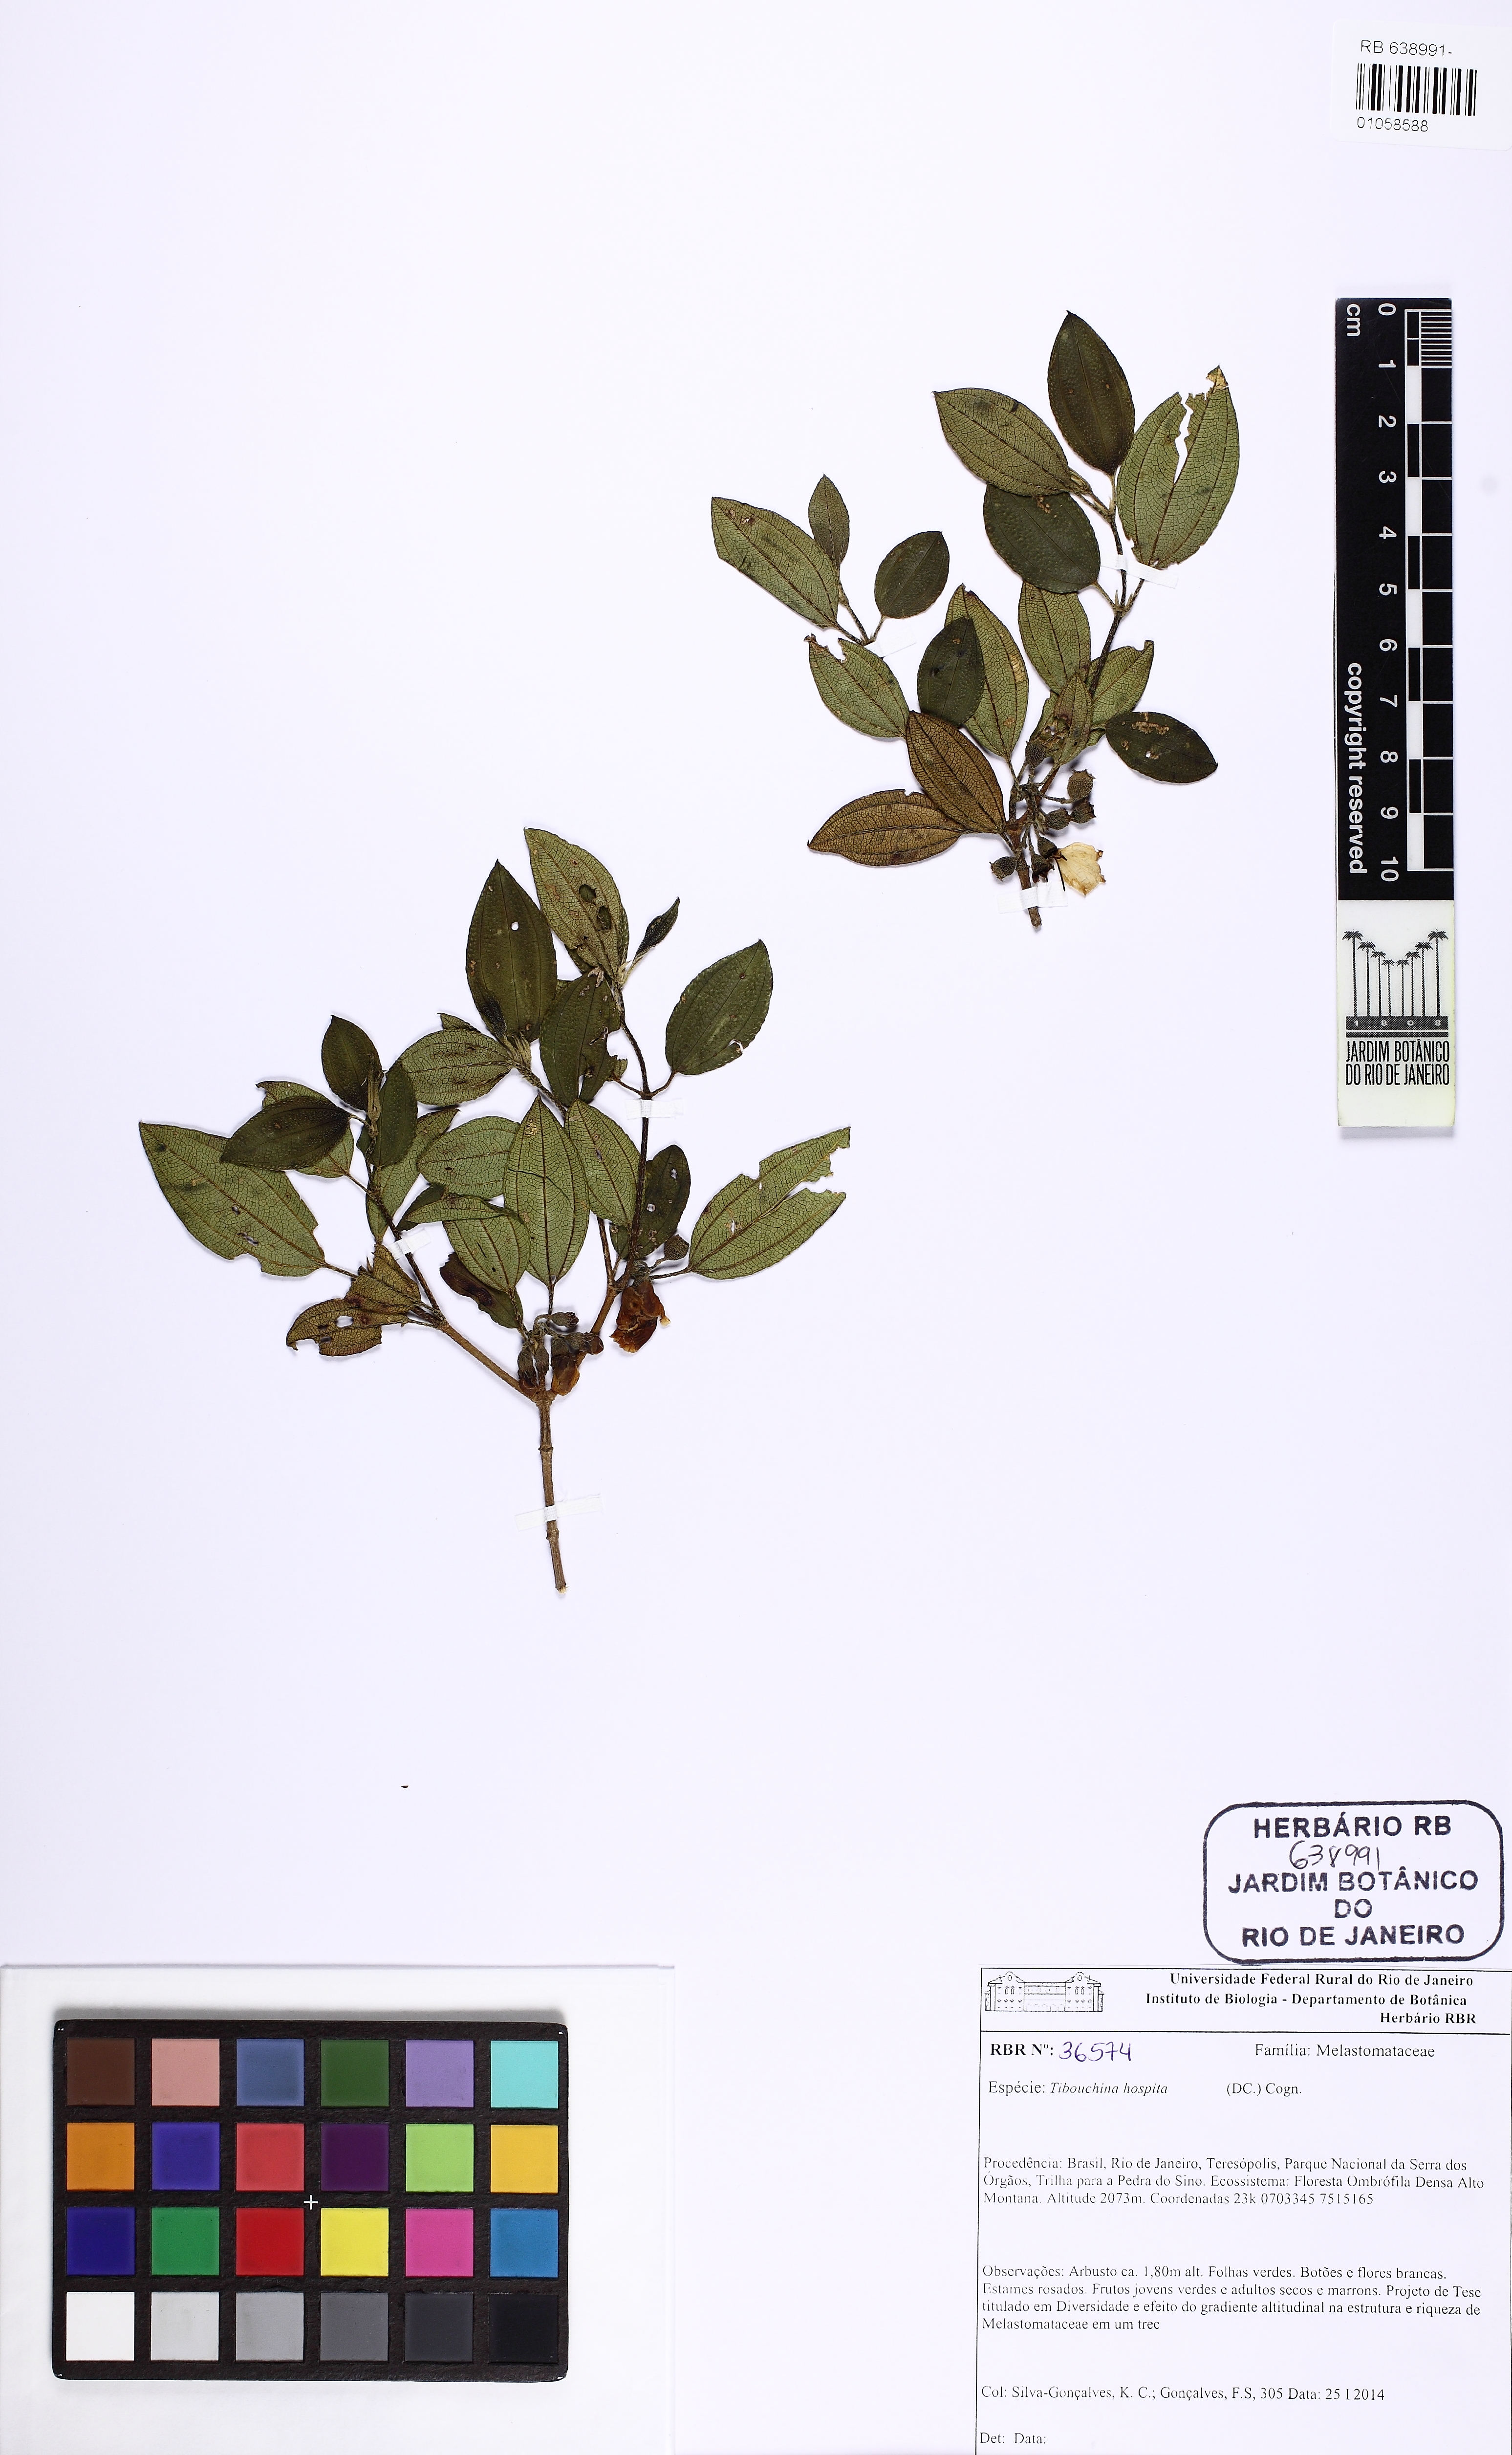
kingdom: Plantae
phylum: Tracheophyta
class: Magnoliopsida
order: Myrtales
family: Melastomataceae
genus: Pleroma
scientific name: Pleroma hospitum
